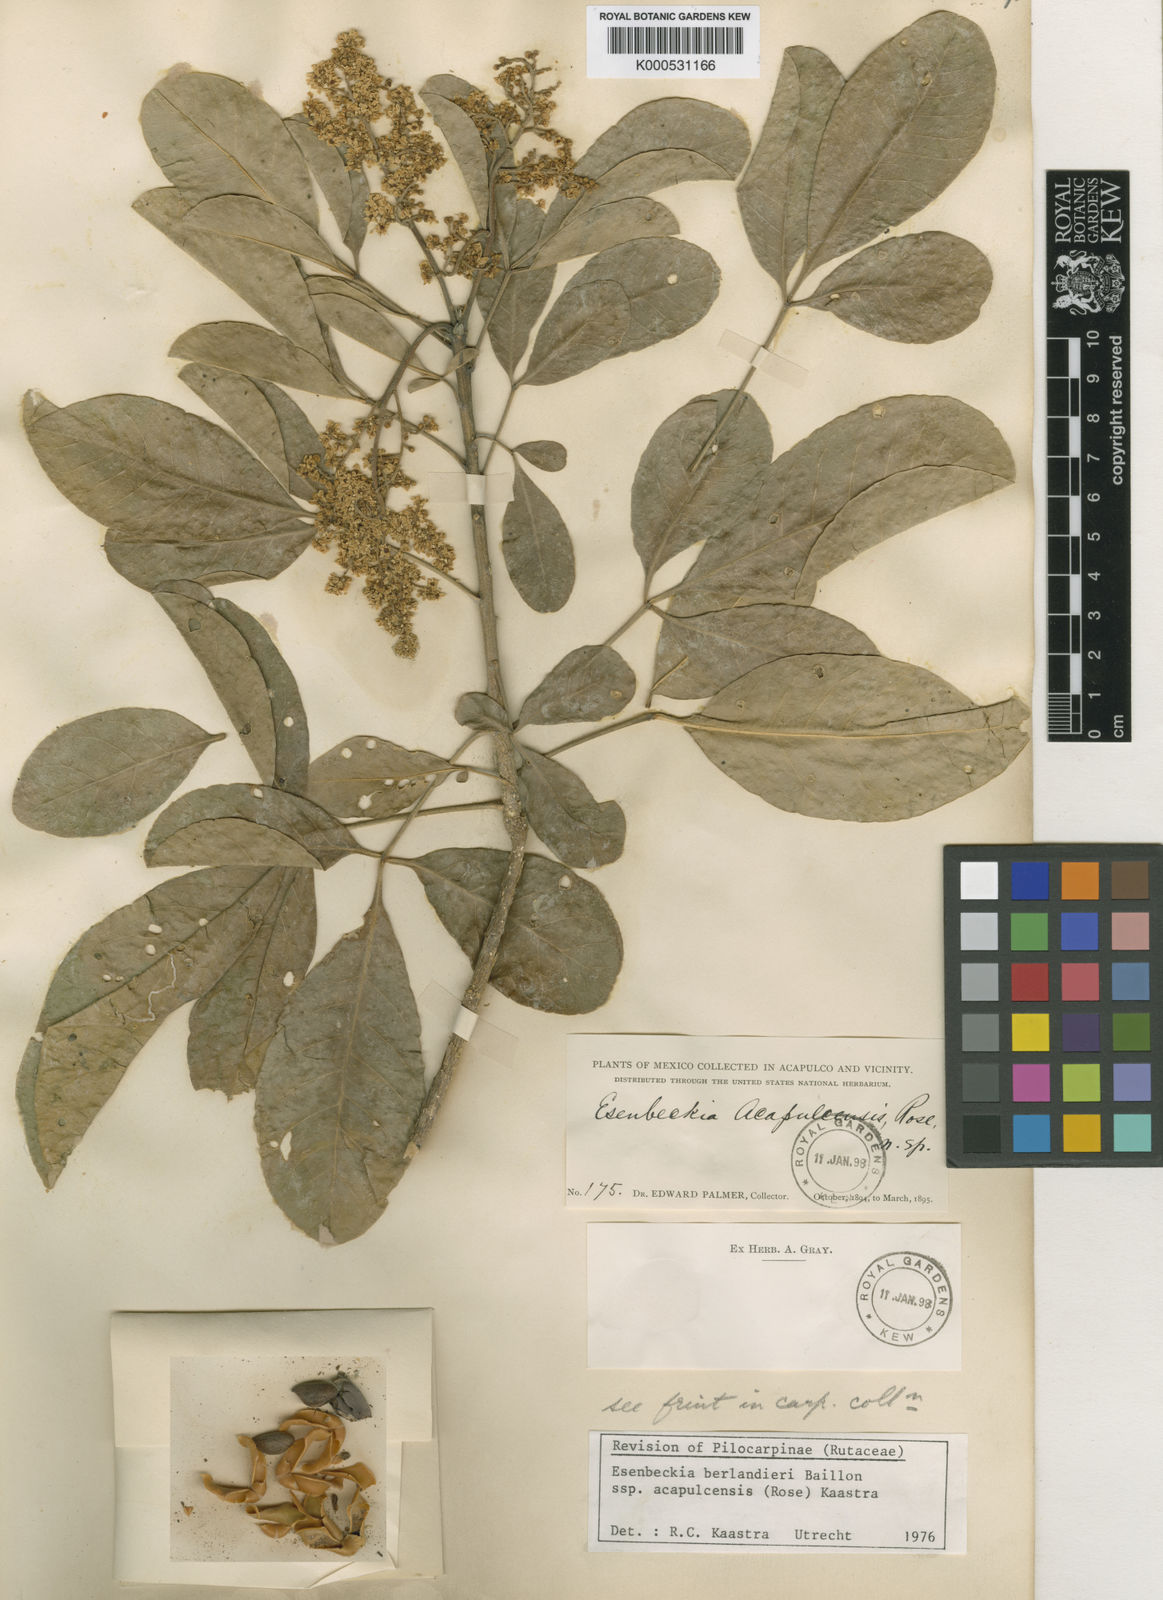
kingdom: Plantae
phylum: Tracheophyta
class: Magnoliopsida
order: Sapindales
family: Rutaceae
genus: Esenbeckia
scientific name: Esenbeckia
